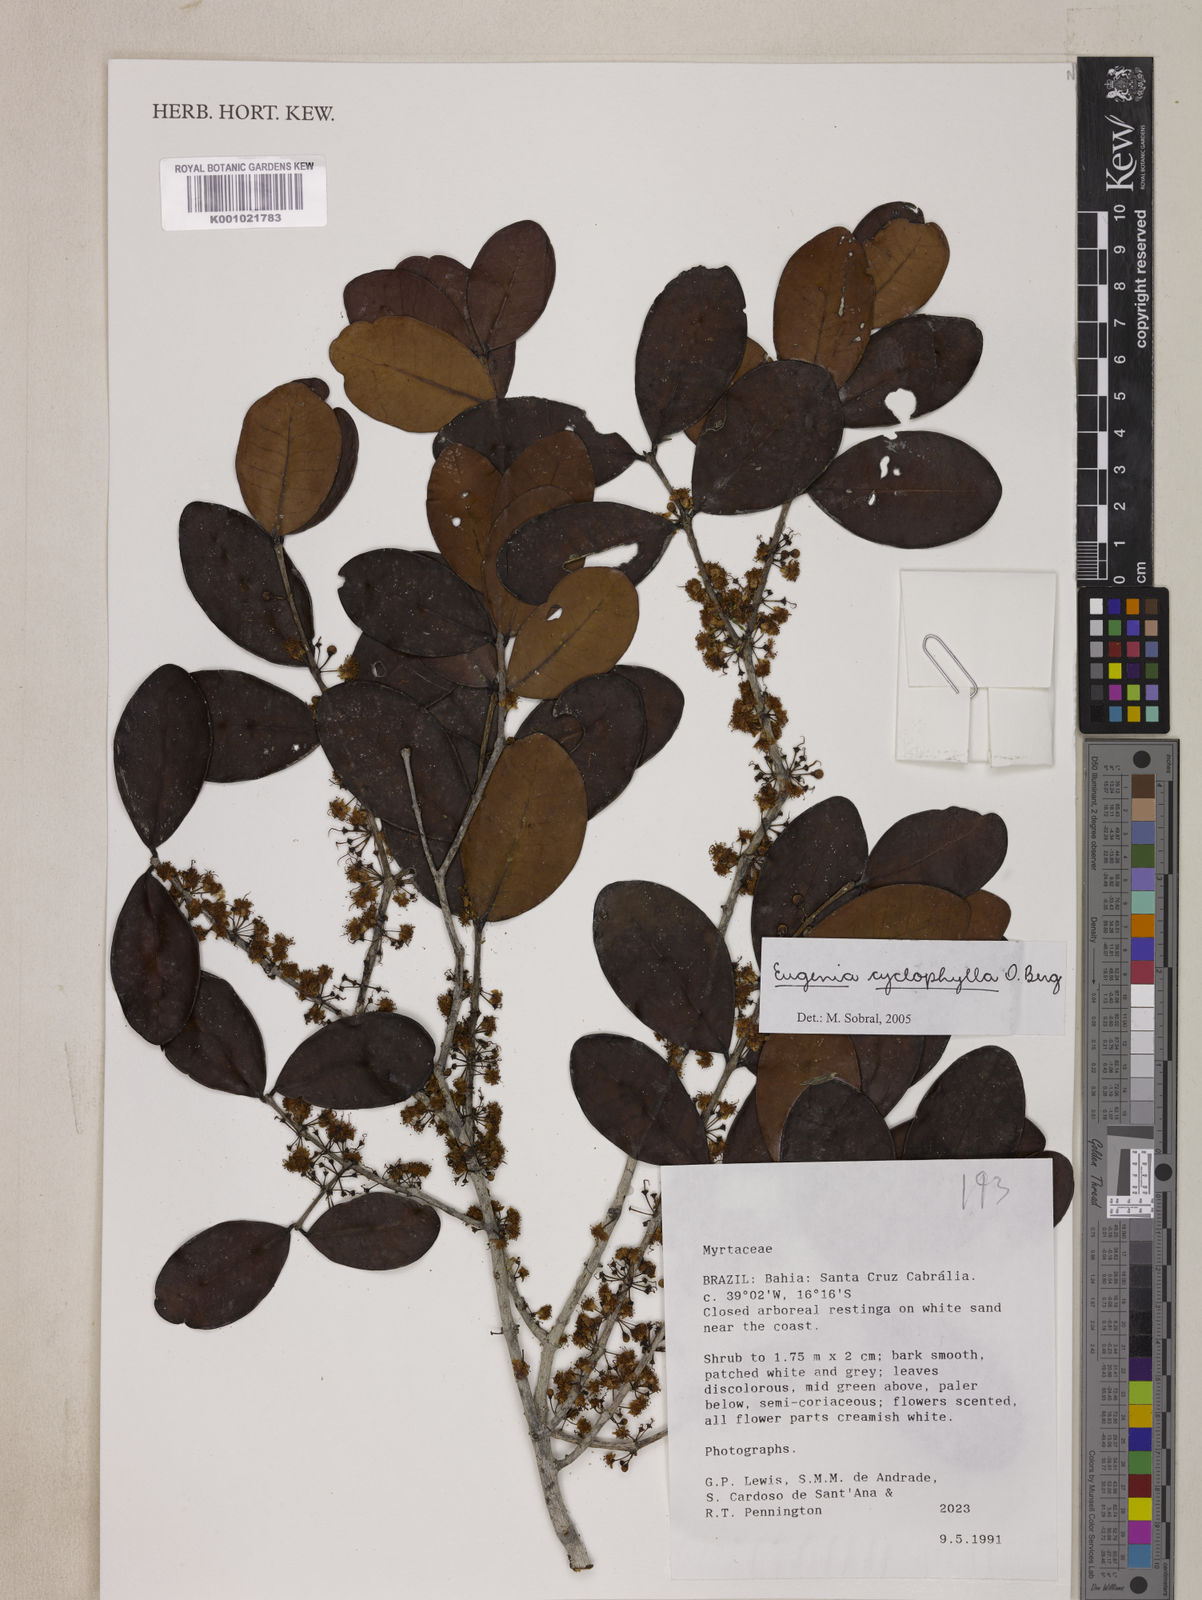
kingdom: Plantae
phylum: Tracheophyta
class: Magnoliopsida
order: Myrtales
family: Myrtaceae
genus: Eugenia
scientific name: Eugenia cyclophylla
